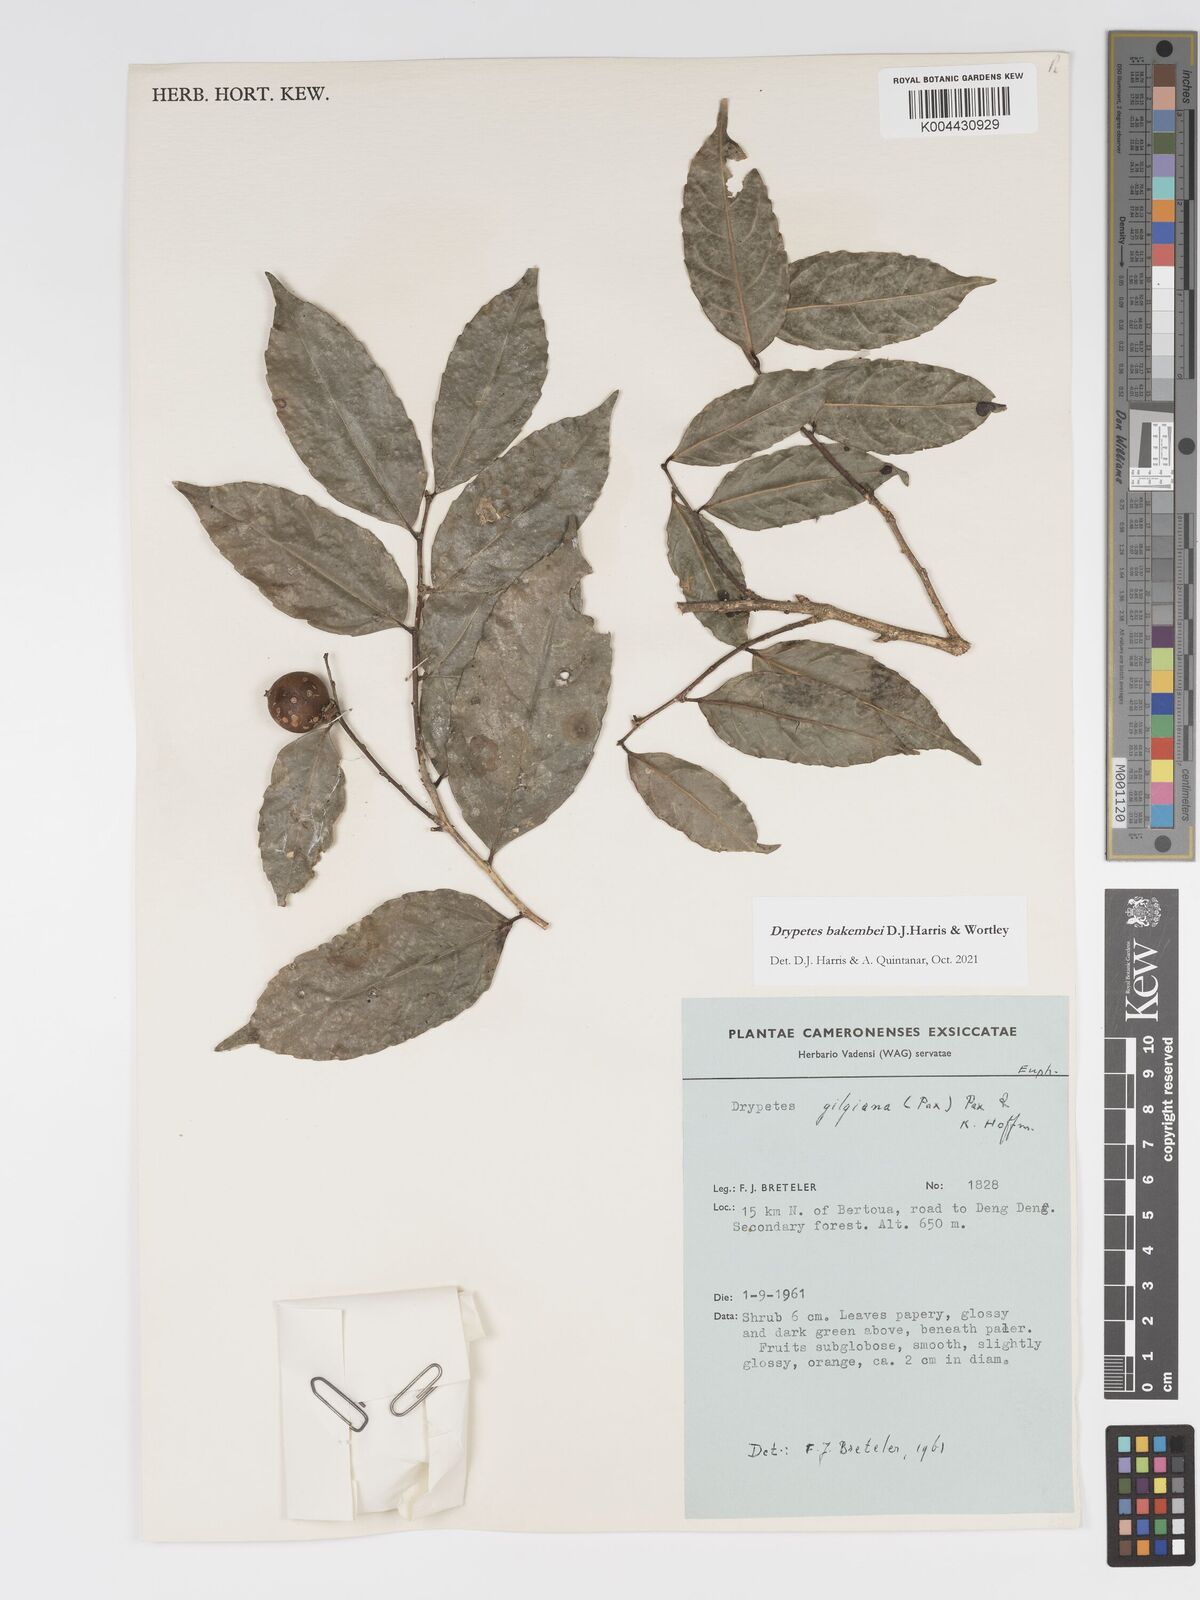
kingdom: Plantae
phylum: Tracheophyta
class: Magnoliopsida
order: Malpighiales
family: Putranjivaceae
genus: Drypetes
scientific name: Drypetes bakembei
